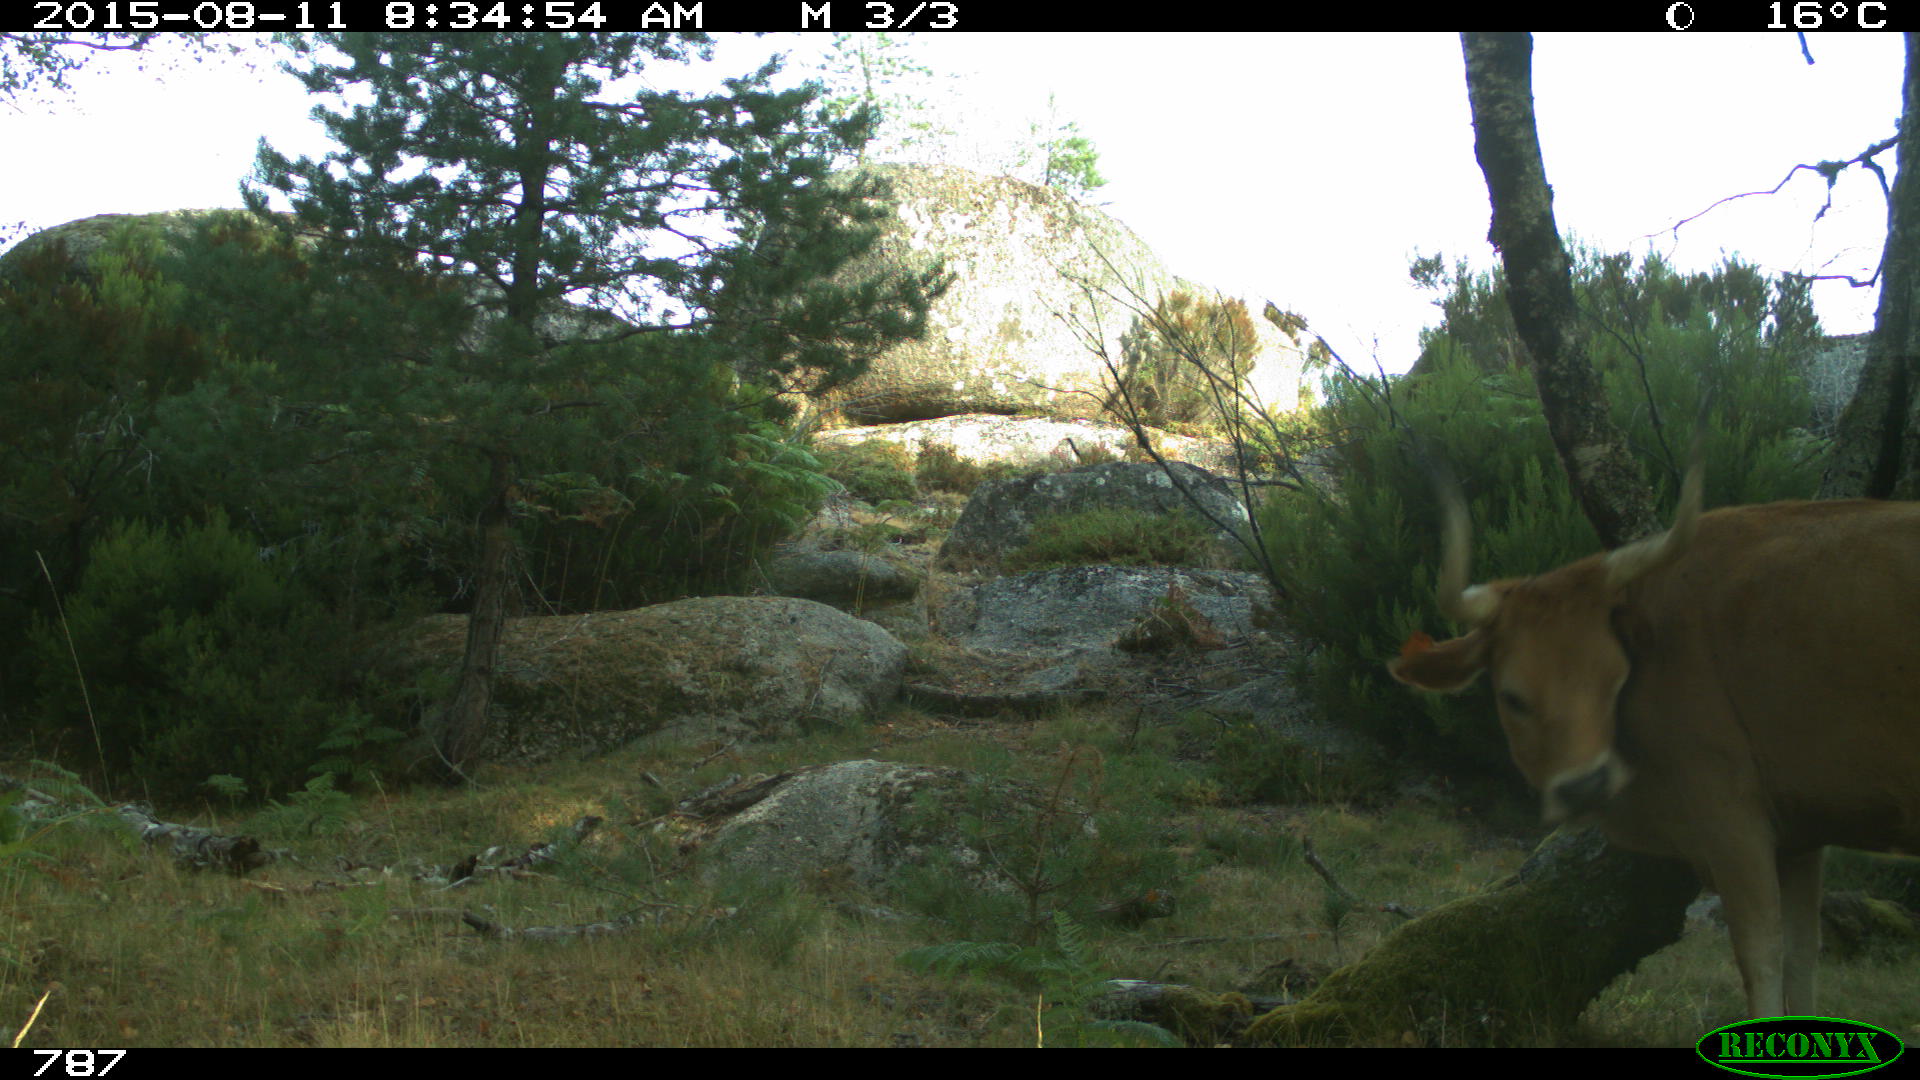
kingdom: Animalia
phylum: Chordata
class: Mammalia
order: Artiodactyla
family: Bovidae
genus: Bos
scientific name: Bos taurus
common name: Domesticated cattle
